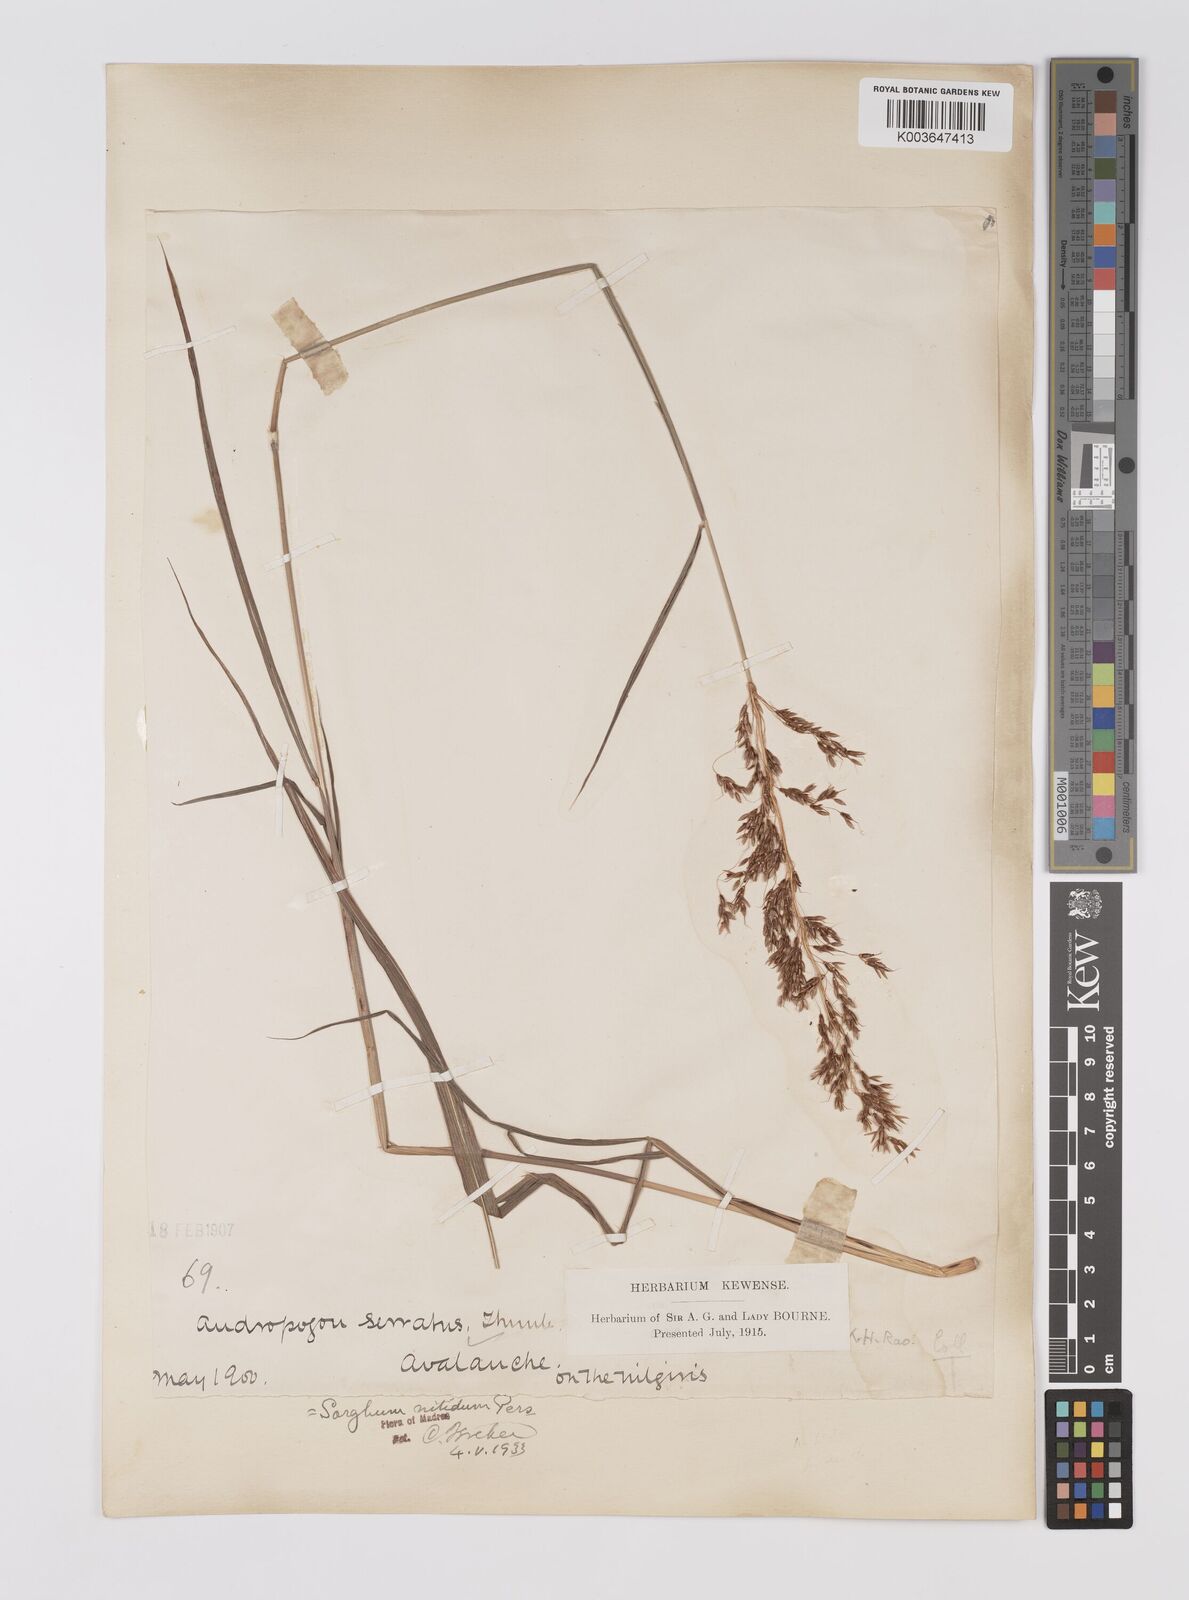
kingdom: Plantae
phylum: Tracheophyta
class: Liliopsida
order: Poales
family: Poaceae
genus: Sorghum
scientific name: Sorghum nitidum
